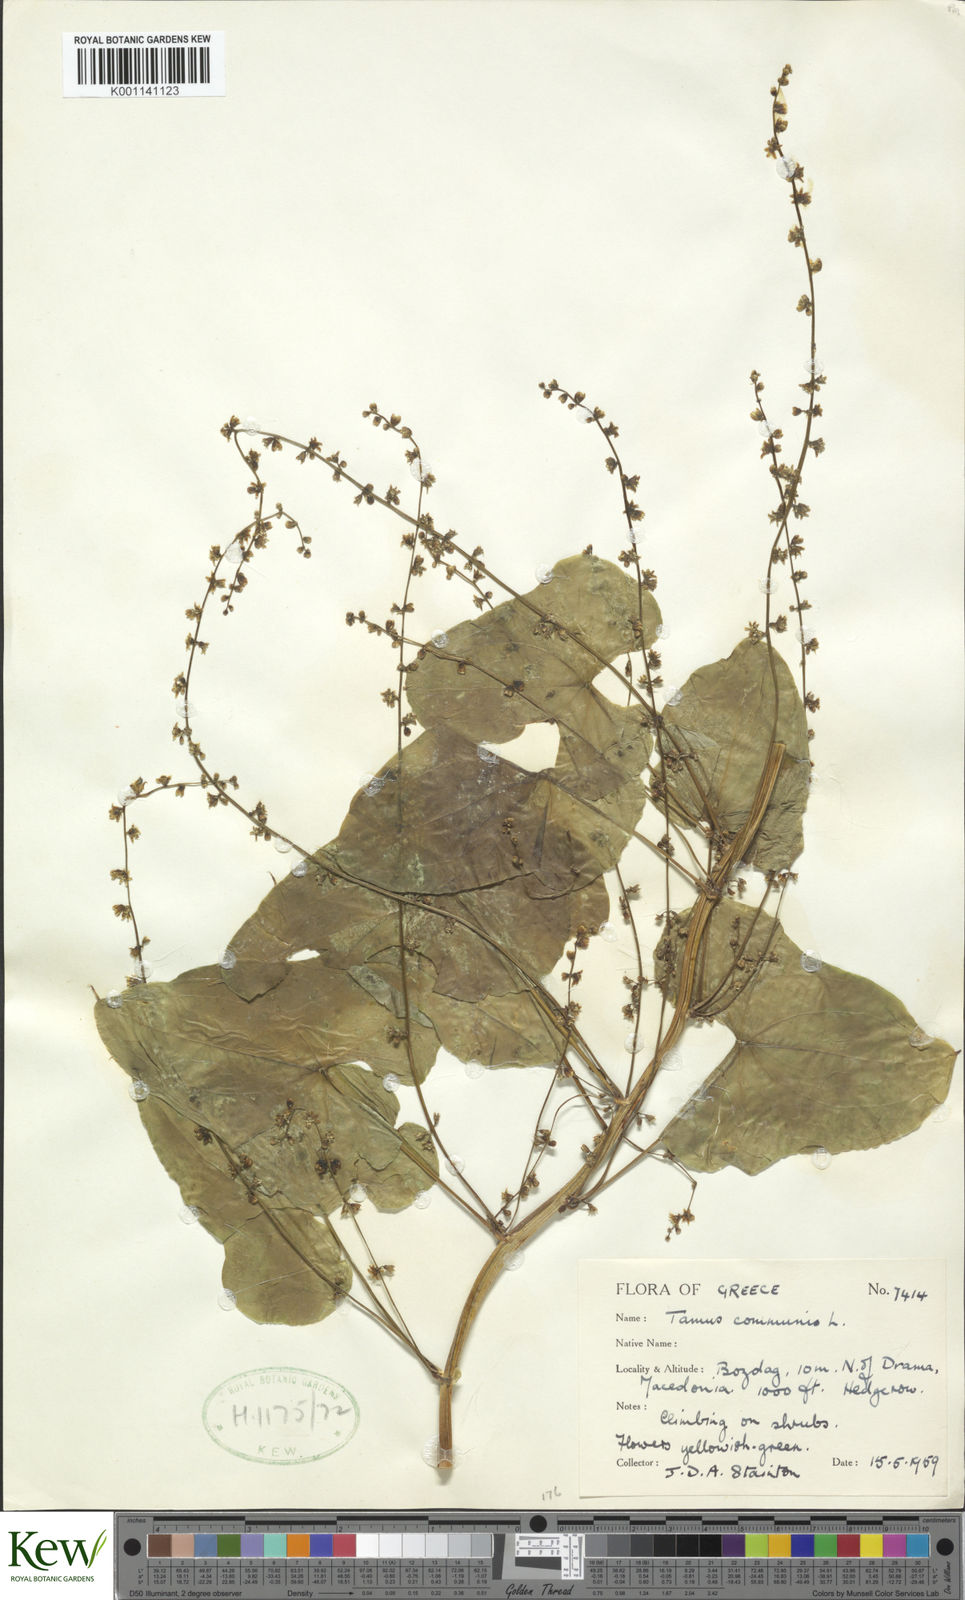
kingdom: Plantae
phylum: Tracheophyta
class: Liliopsida
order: Dioscoreales
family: Dioscoreaceae
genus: Dioscorea
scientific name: Dioscorea communis
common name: Black-bindweed
